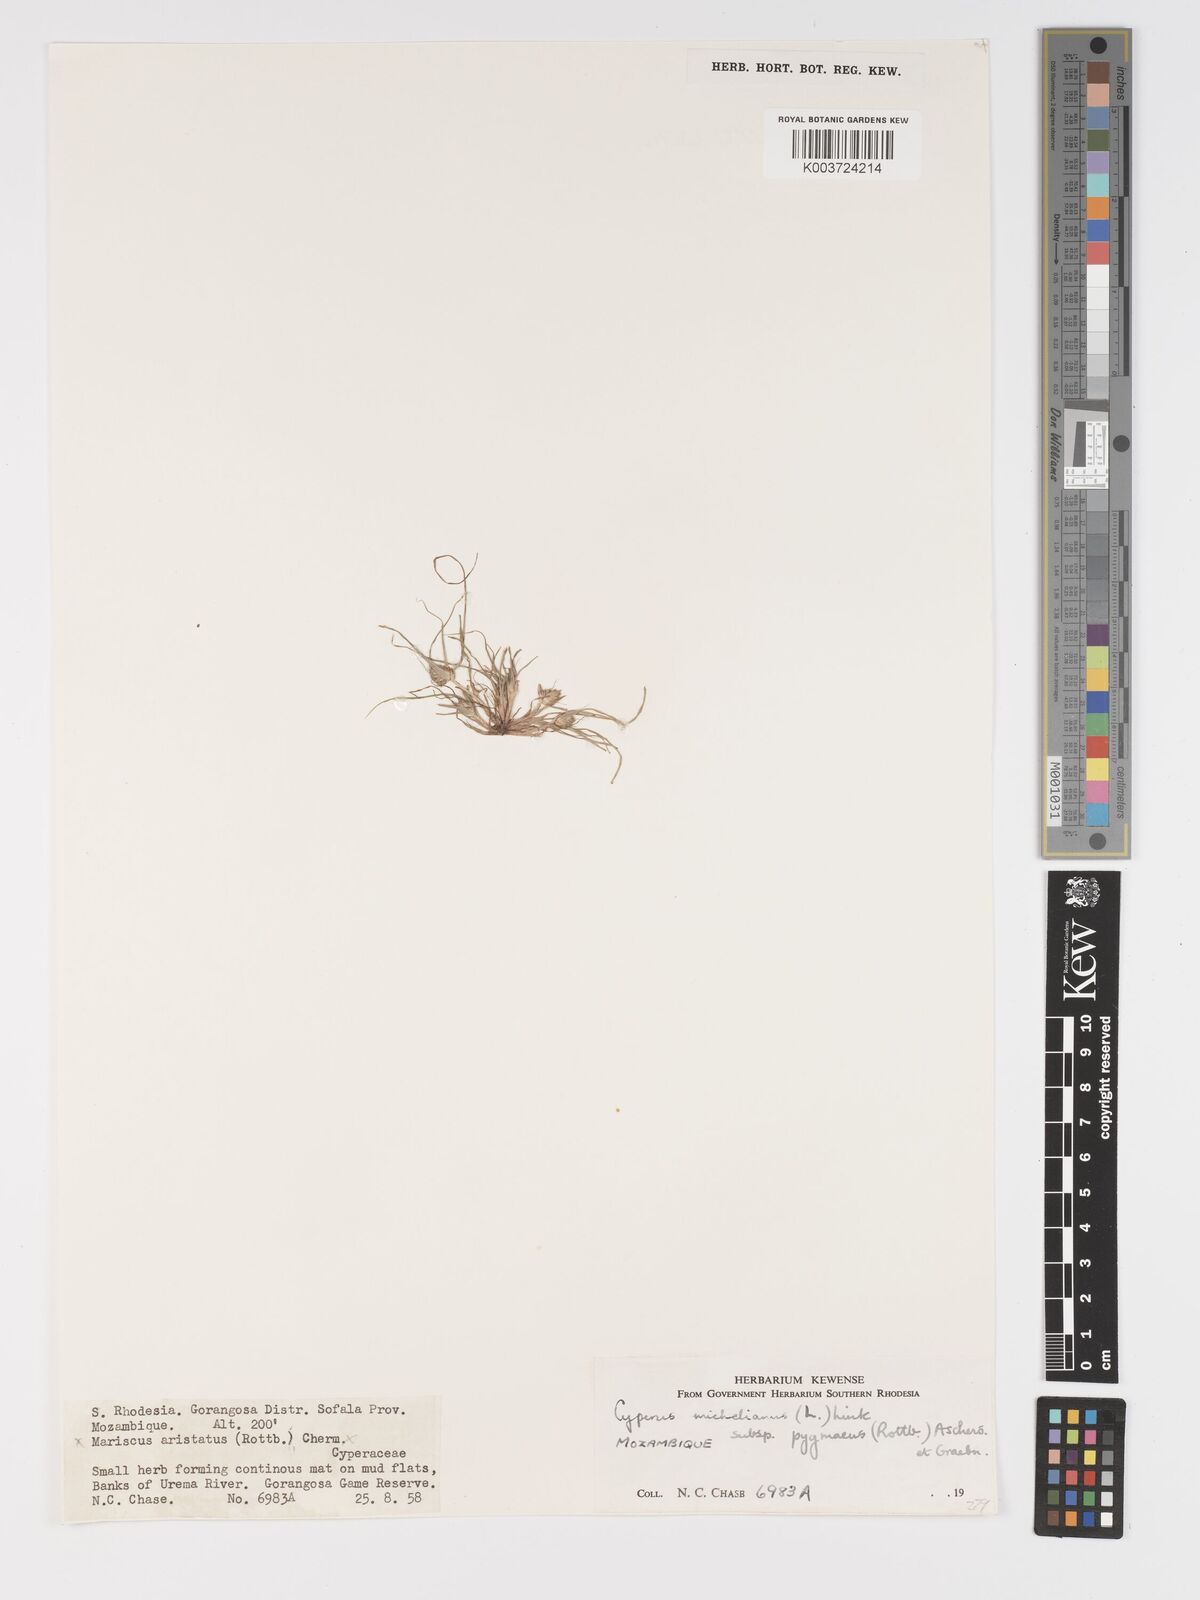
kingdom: Plantae
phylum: Tracheophyta
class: Liliopsida
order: Poales
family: Cyperaceae
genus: Cyperus
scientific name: Cyperus michelianus
